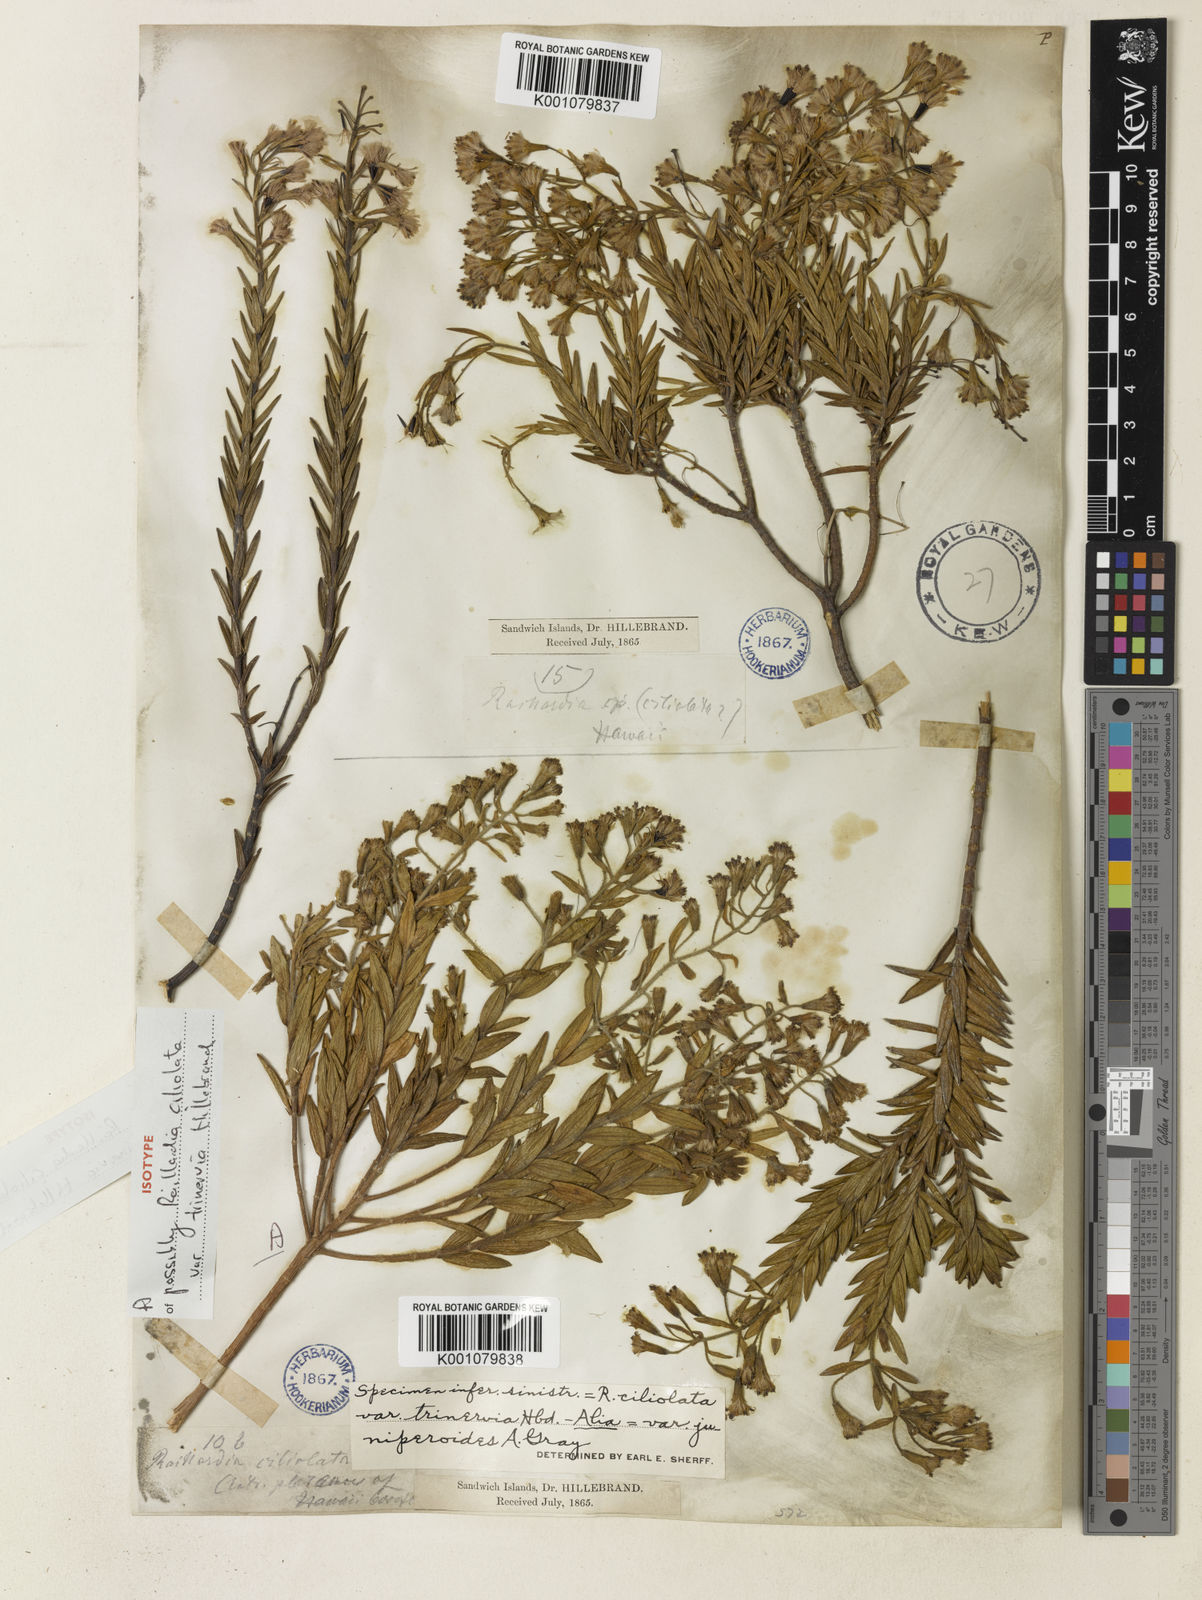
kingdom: Plantae
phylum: Tracheophyta
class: Magnoliopsida
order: Asterales
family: Asteraceae
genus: Dubautia
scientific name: Dubautia arborea
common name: Tree dubautia
